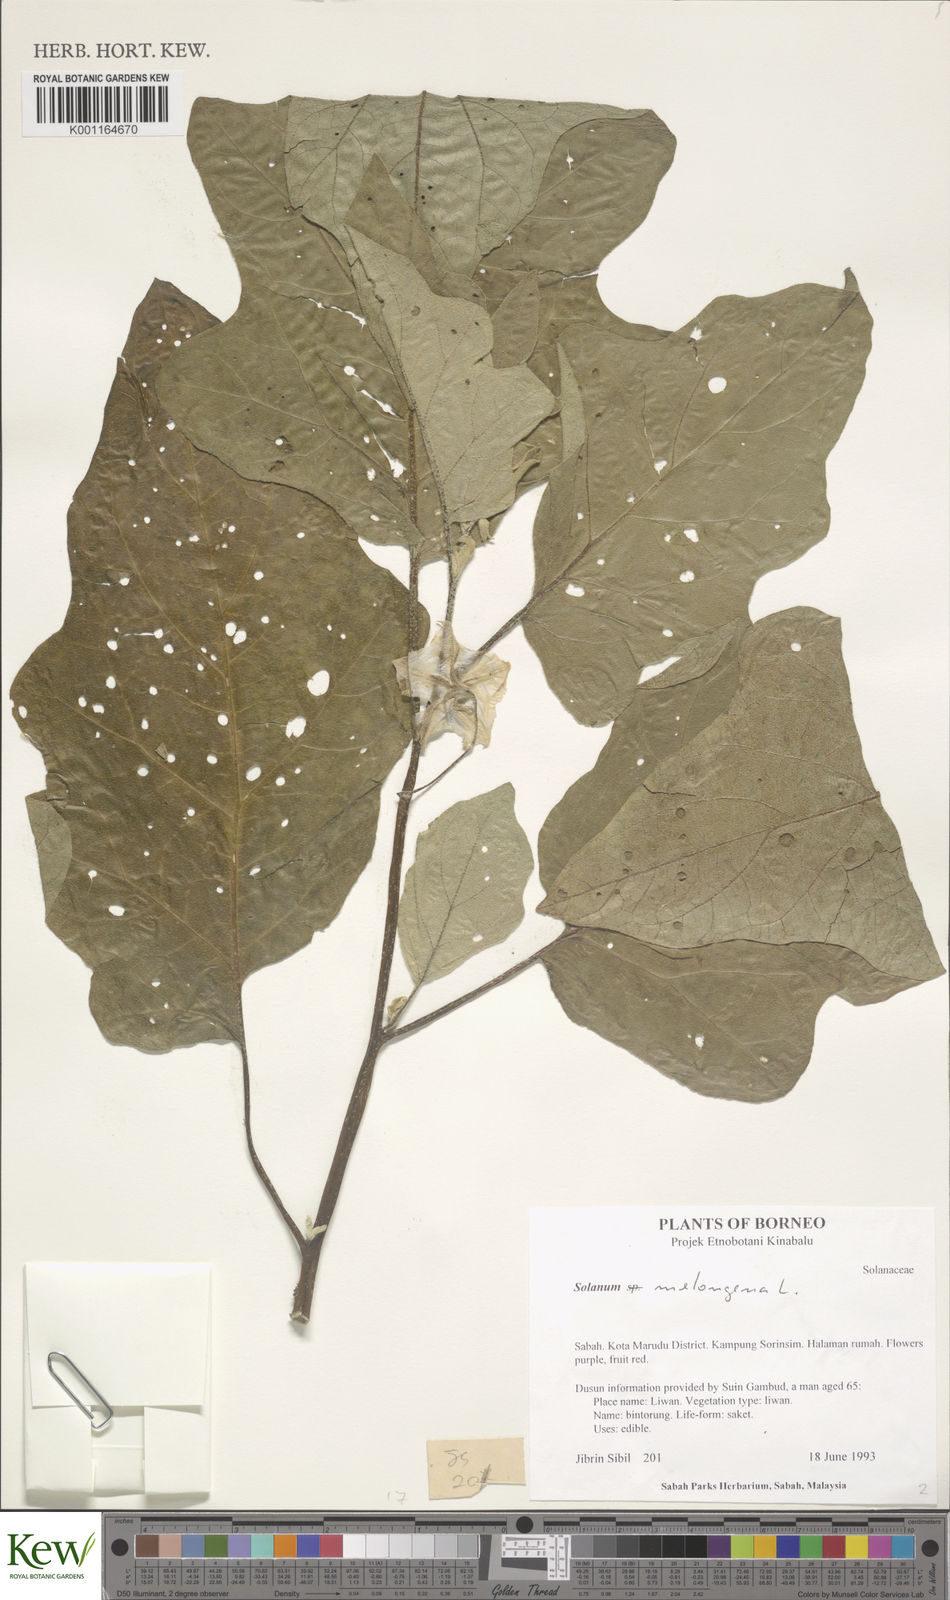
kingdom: Plantae
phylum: Tracheophyta
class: Magnoliopsida
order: Solanales
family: Solanaceae
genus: Solanum
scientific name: Solanum melongena
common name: Eggplant
